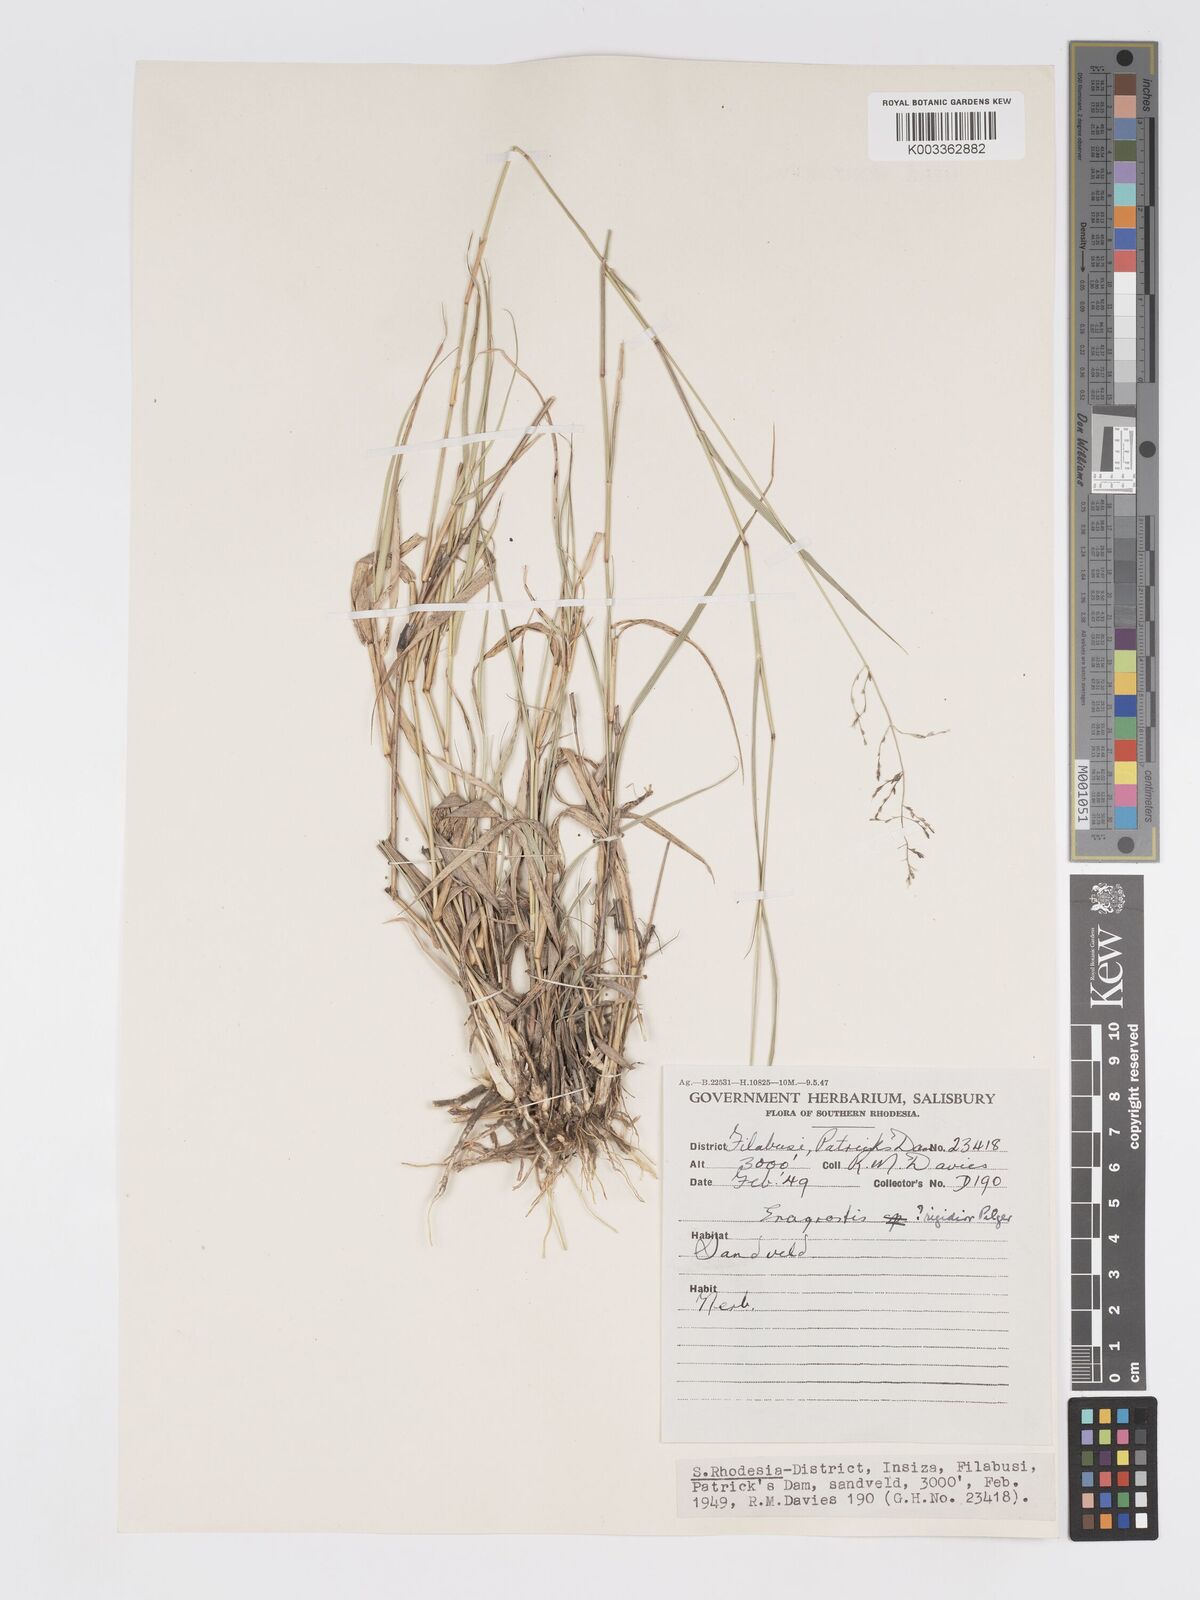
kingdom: Plantae
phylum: Tracheophyta
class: Liliopsida
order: Poales
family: Poaceae
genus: Eragrostis
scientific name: Eragrostis cylindriflora
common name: Cylinderflower lovegrass
